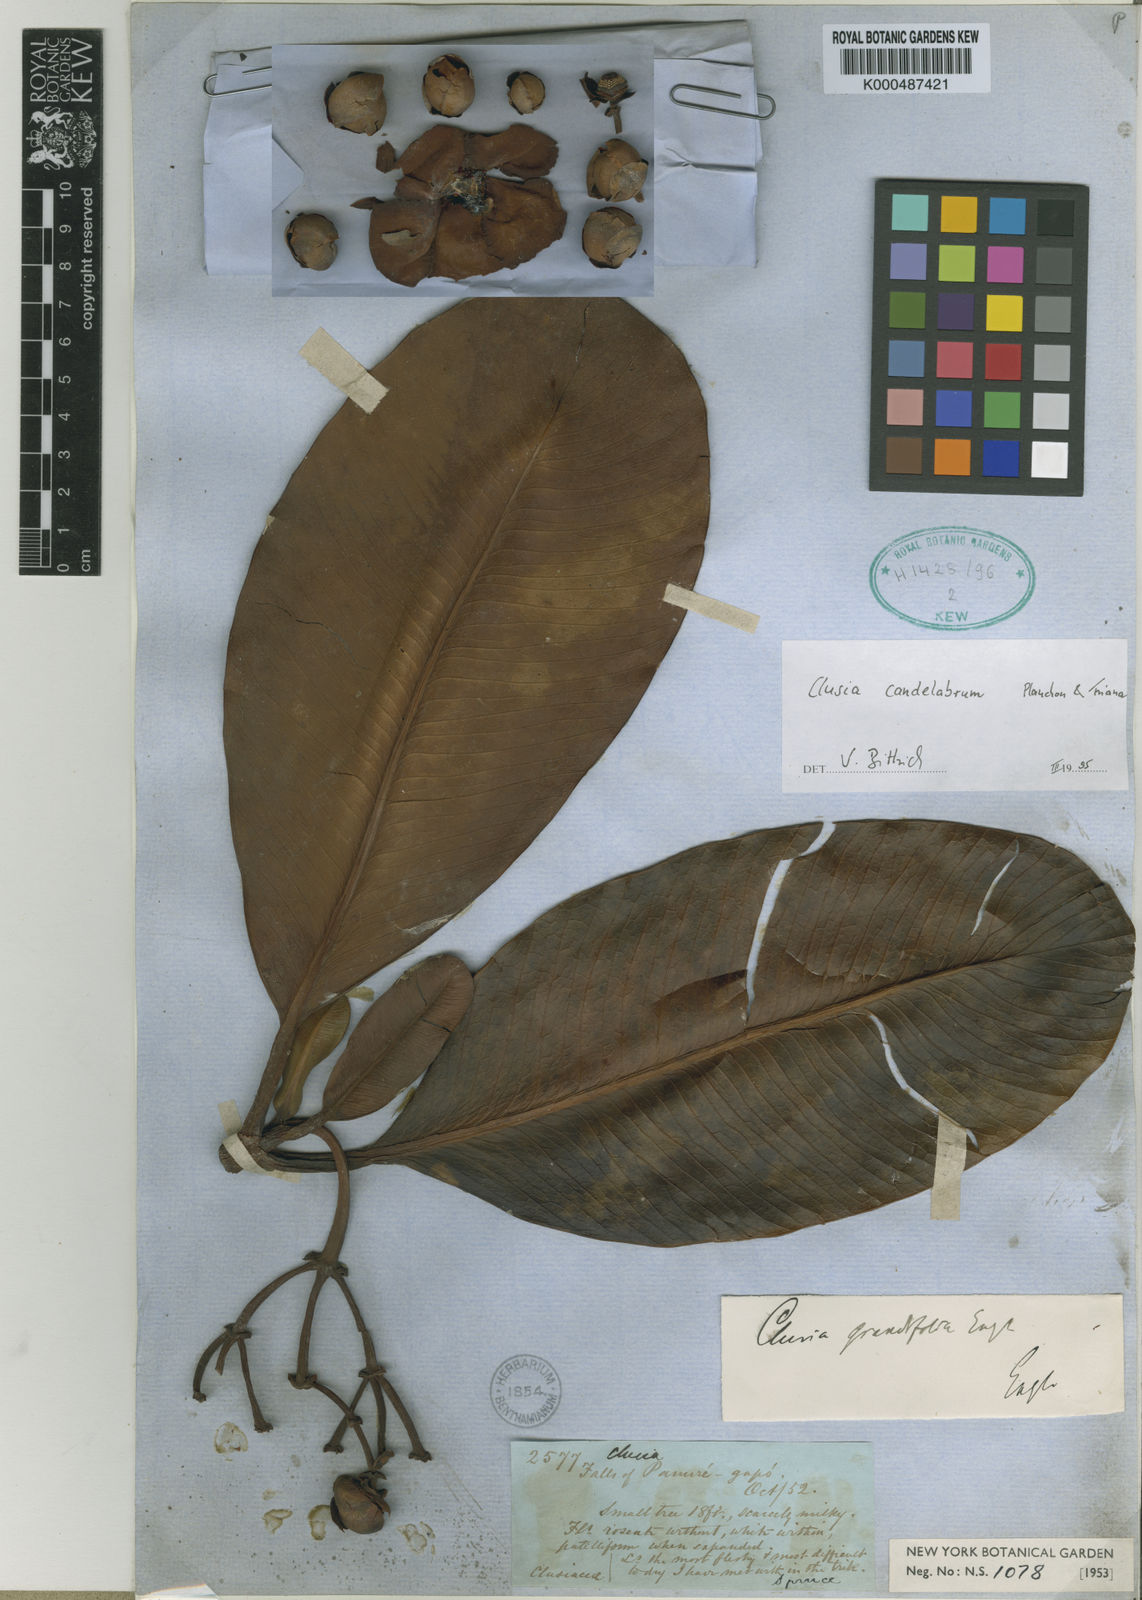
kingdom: Plantae
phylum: Tracheophyta
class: Magnoliopsida
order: Malpighiales
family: Clusiaceae
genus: Clusia
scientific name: Clusia candelabrum
